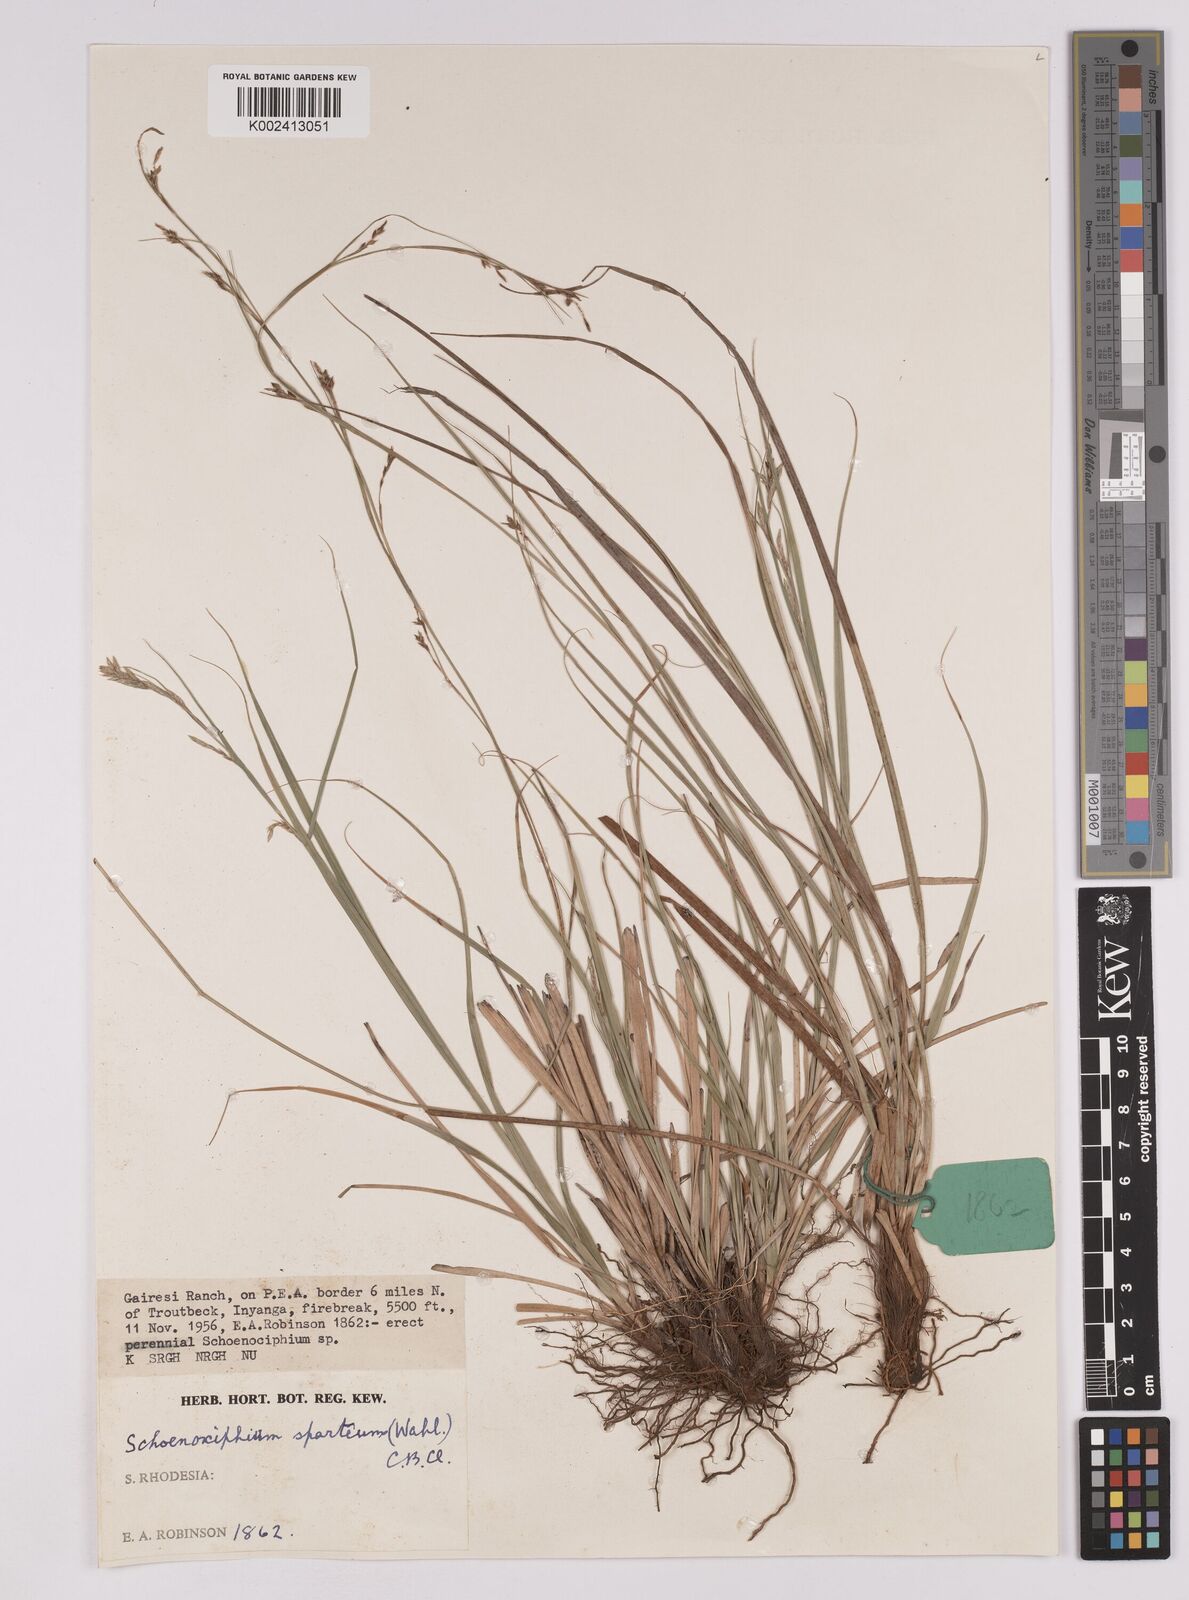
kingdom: Plantae
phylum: Tracheophyta
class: Liliopsida
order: Poales
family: Cyperaceae
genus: Carex
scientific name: Carex spartea
